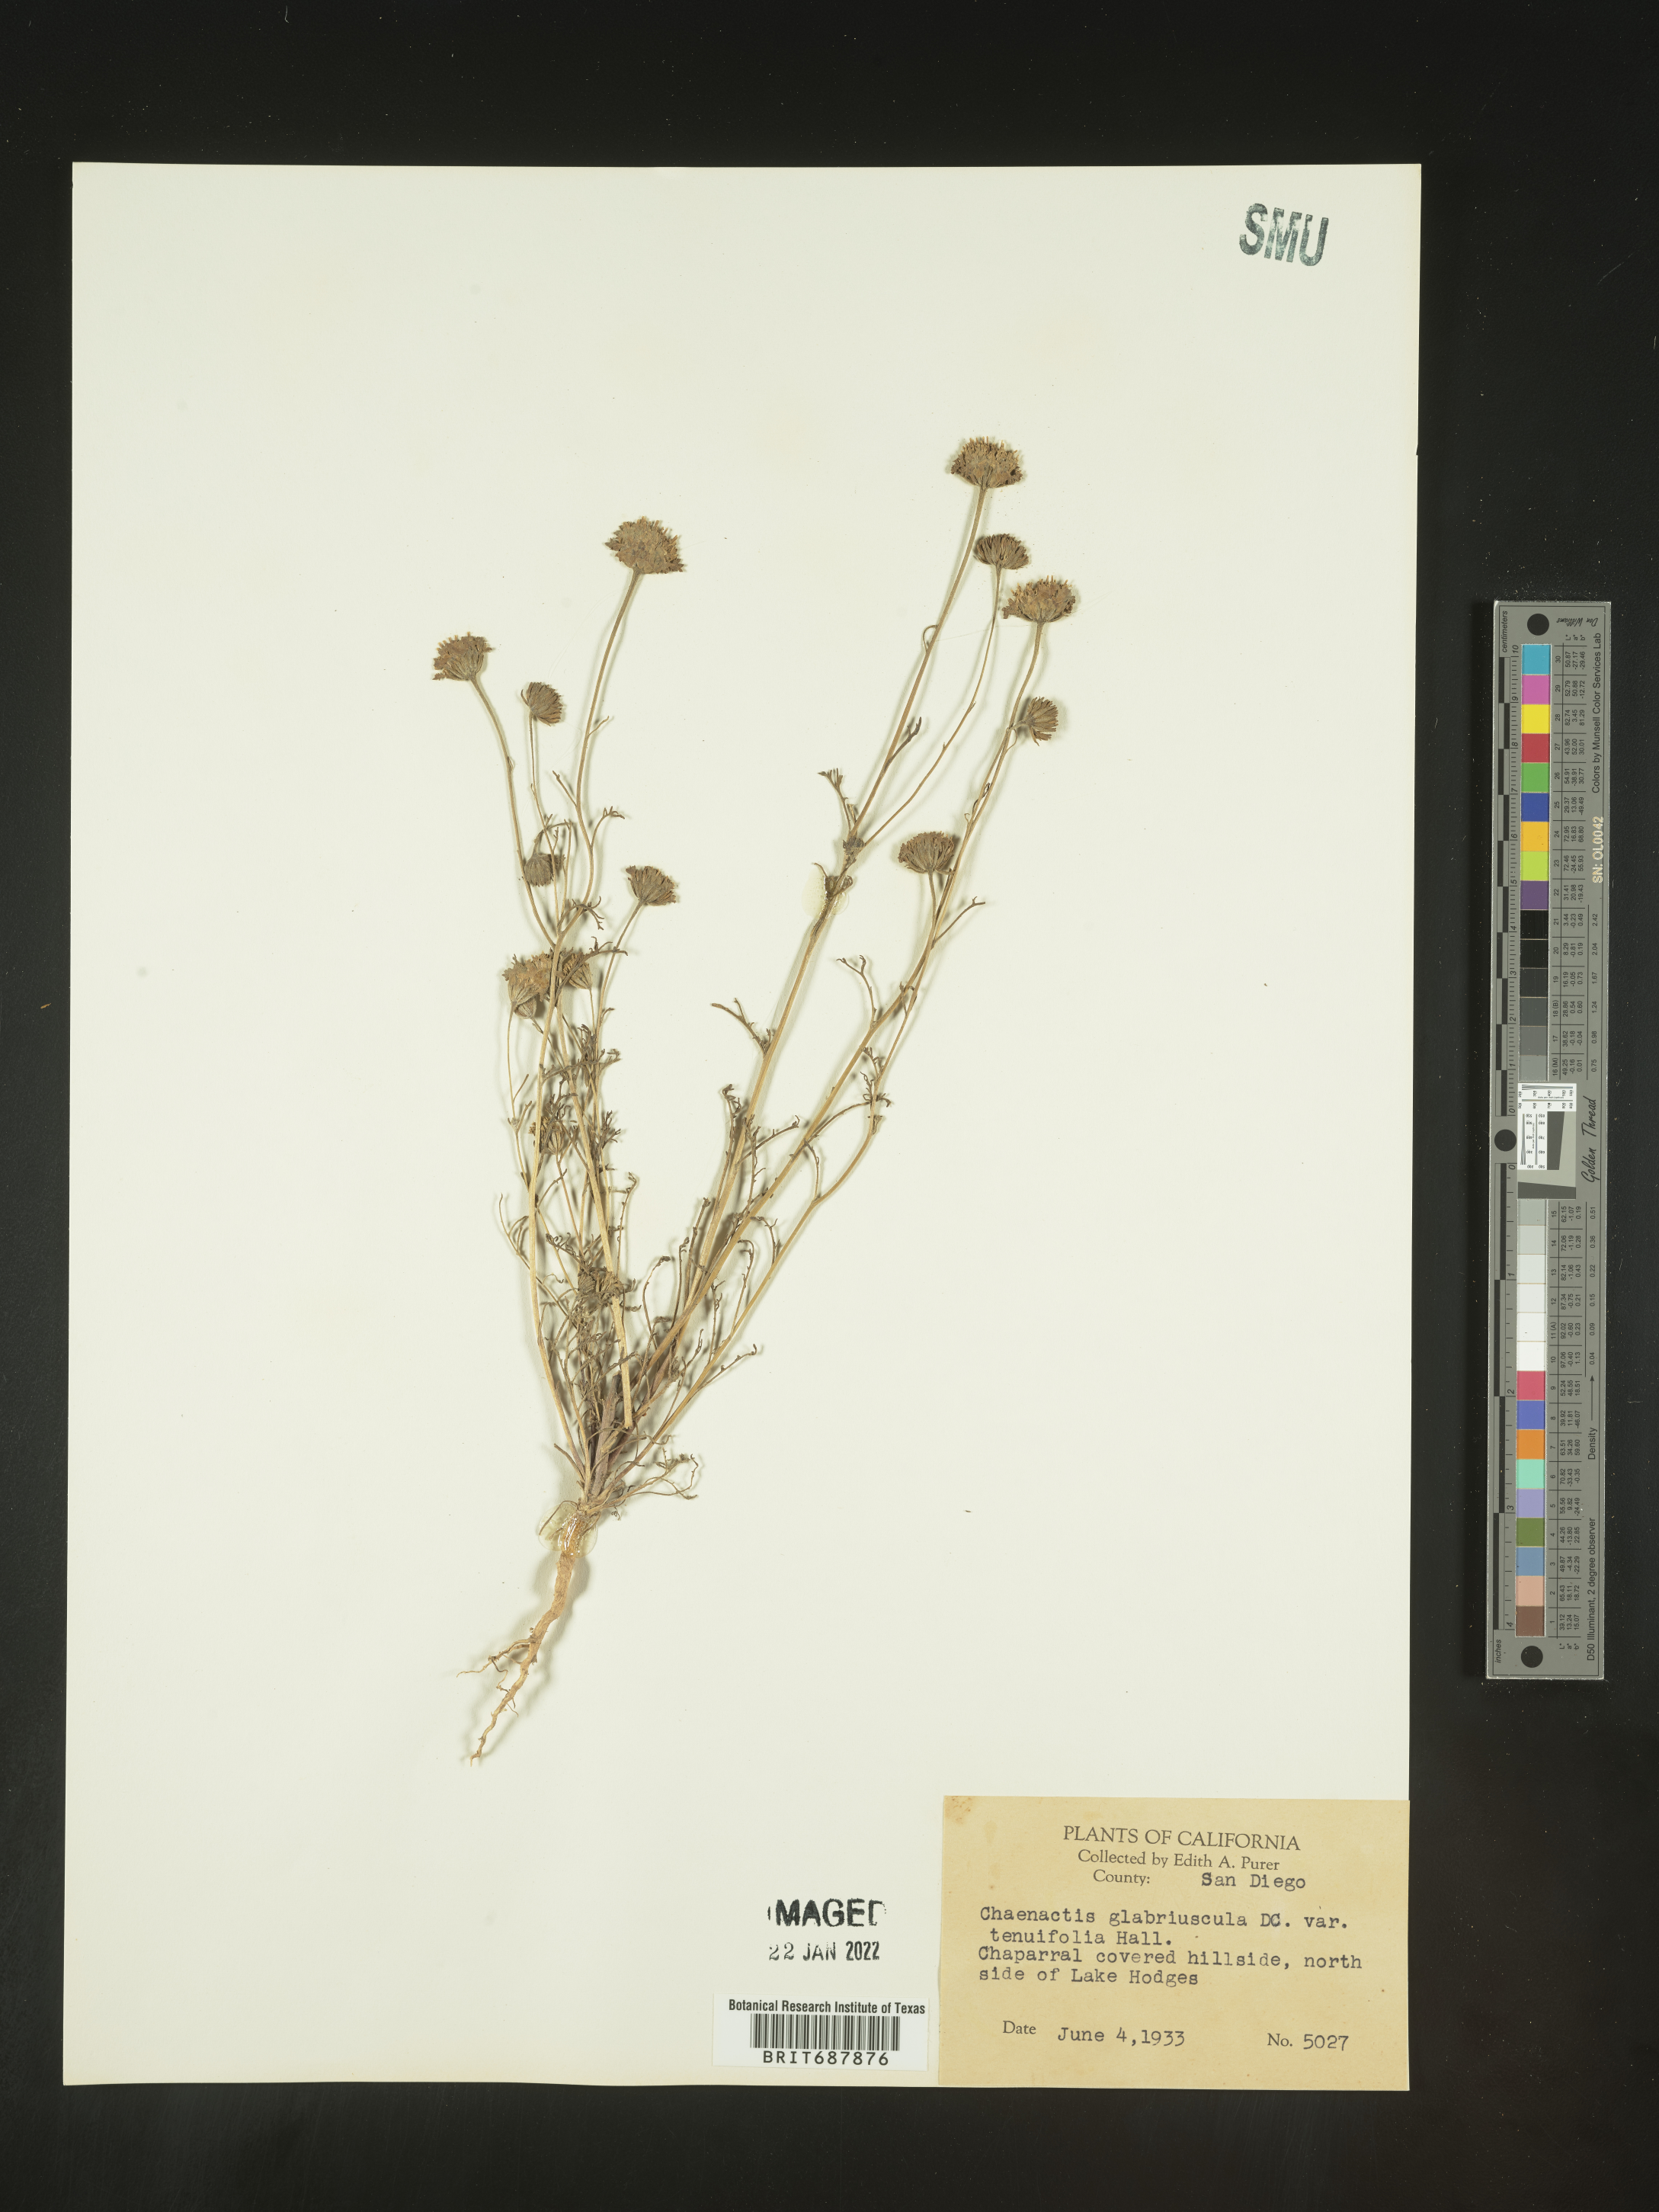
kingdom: Plantae
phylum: Tracheophyta
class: Magnoliopsida
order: Asterales
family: Asteraceae
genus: Chaenactis
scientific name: Chaenactis glabriuscula
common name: Yellow pincushion
